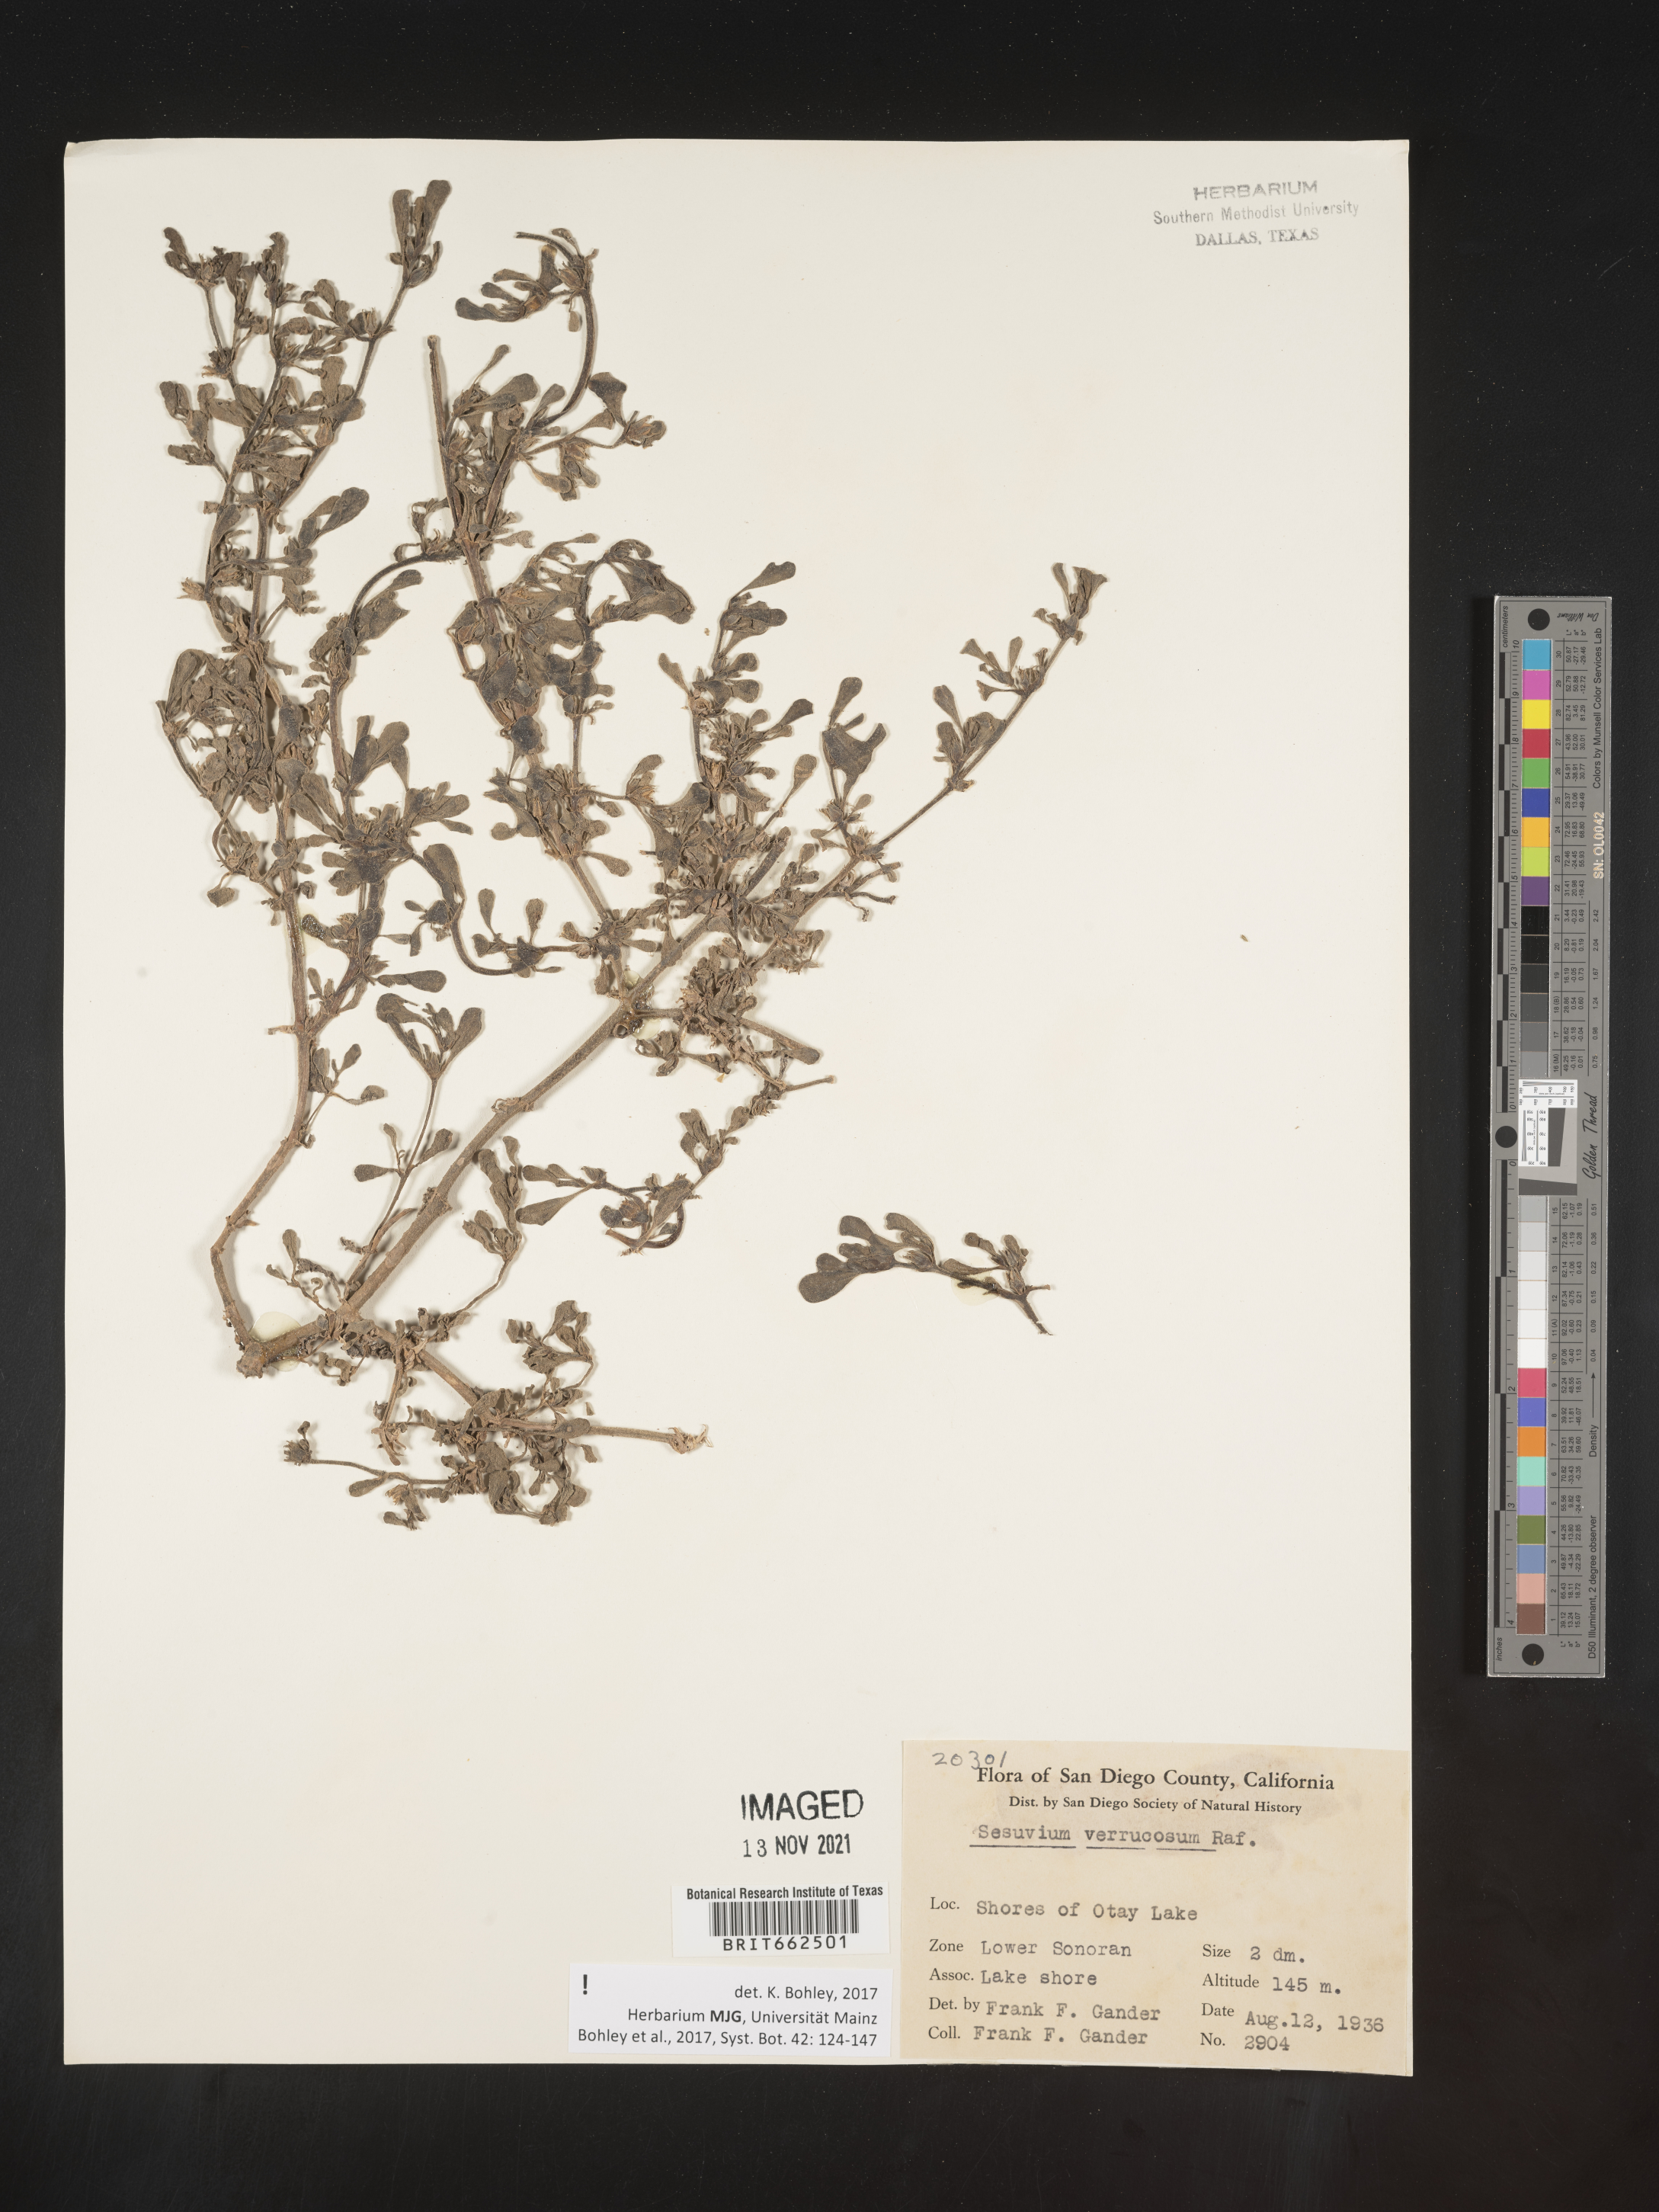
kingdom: Plantae
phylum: Tracheophyta
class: Magnoliopsida
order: Caryophyllales
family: Aizoaceae
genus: Sesuvium
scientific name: Sesuvium
